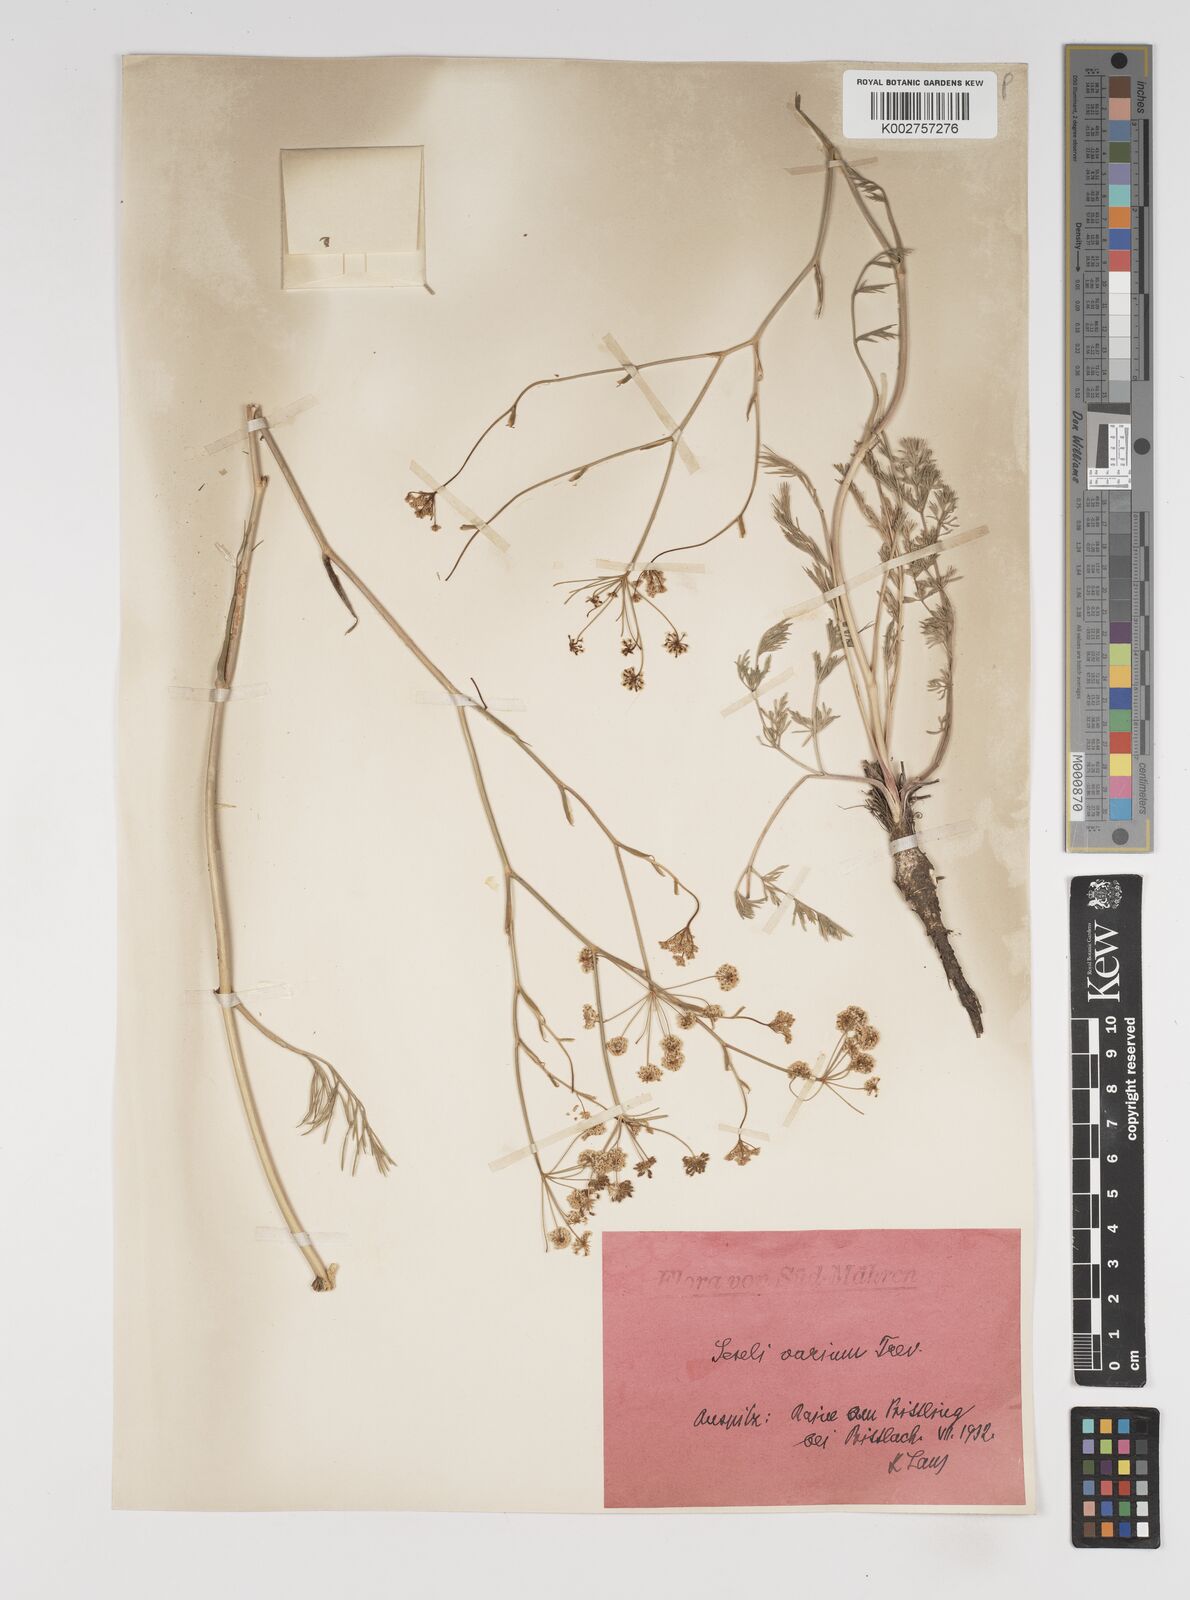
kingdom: Plantae
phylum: Tracheophyta
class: Magnoliopsida
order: Apiales
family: Apiaceae
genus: Seseli
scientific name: Seseli pallasii
